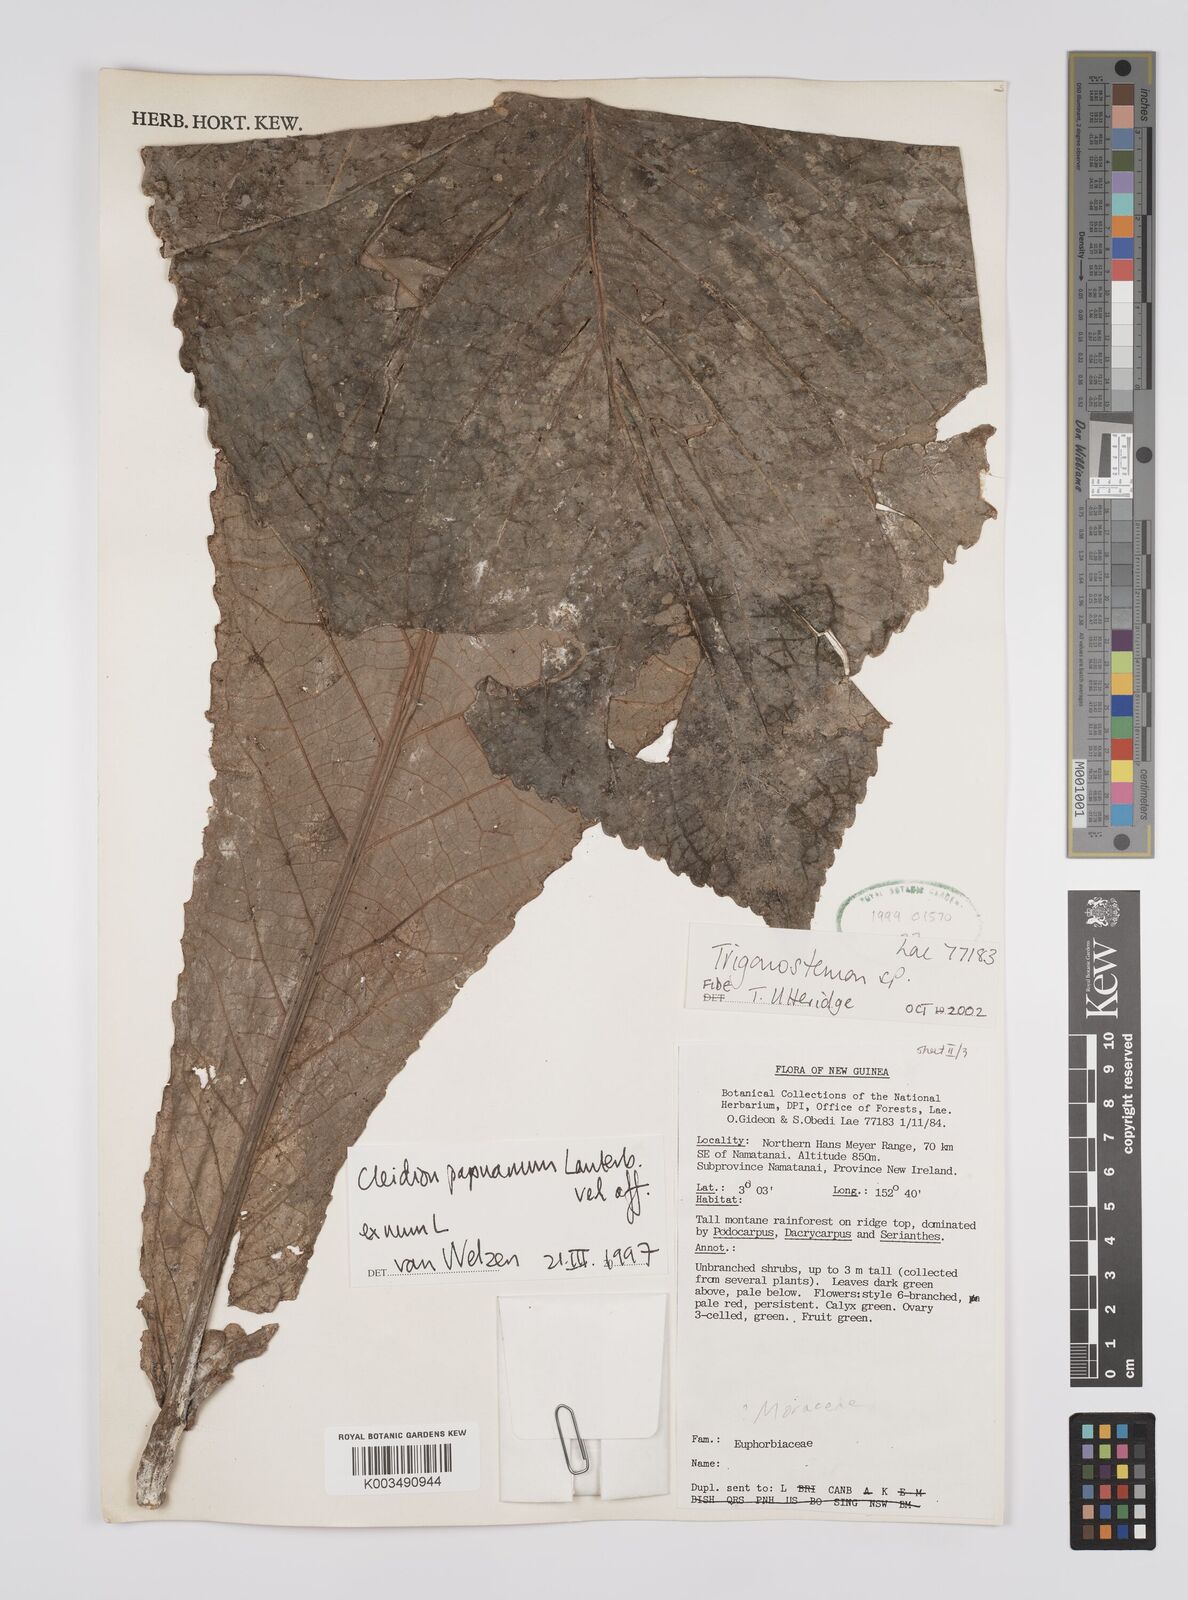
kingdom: Plantae
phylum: Tracheophyta
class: Magnoliopsida
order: Malpighiales
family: Euphorbiaceae
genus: Cleidion
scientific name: Cleidion papuanum
